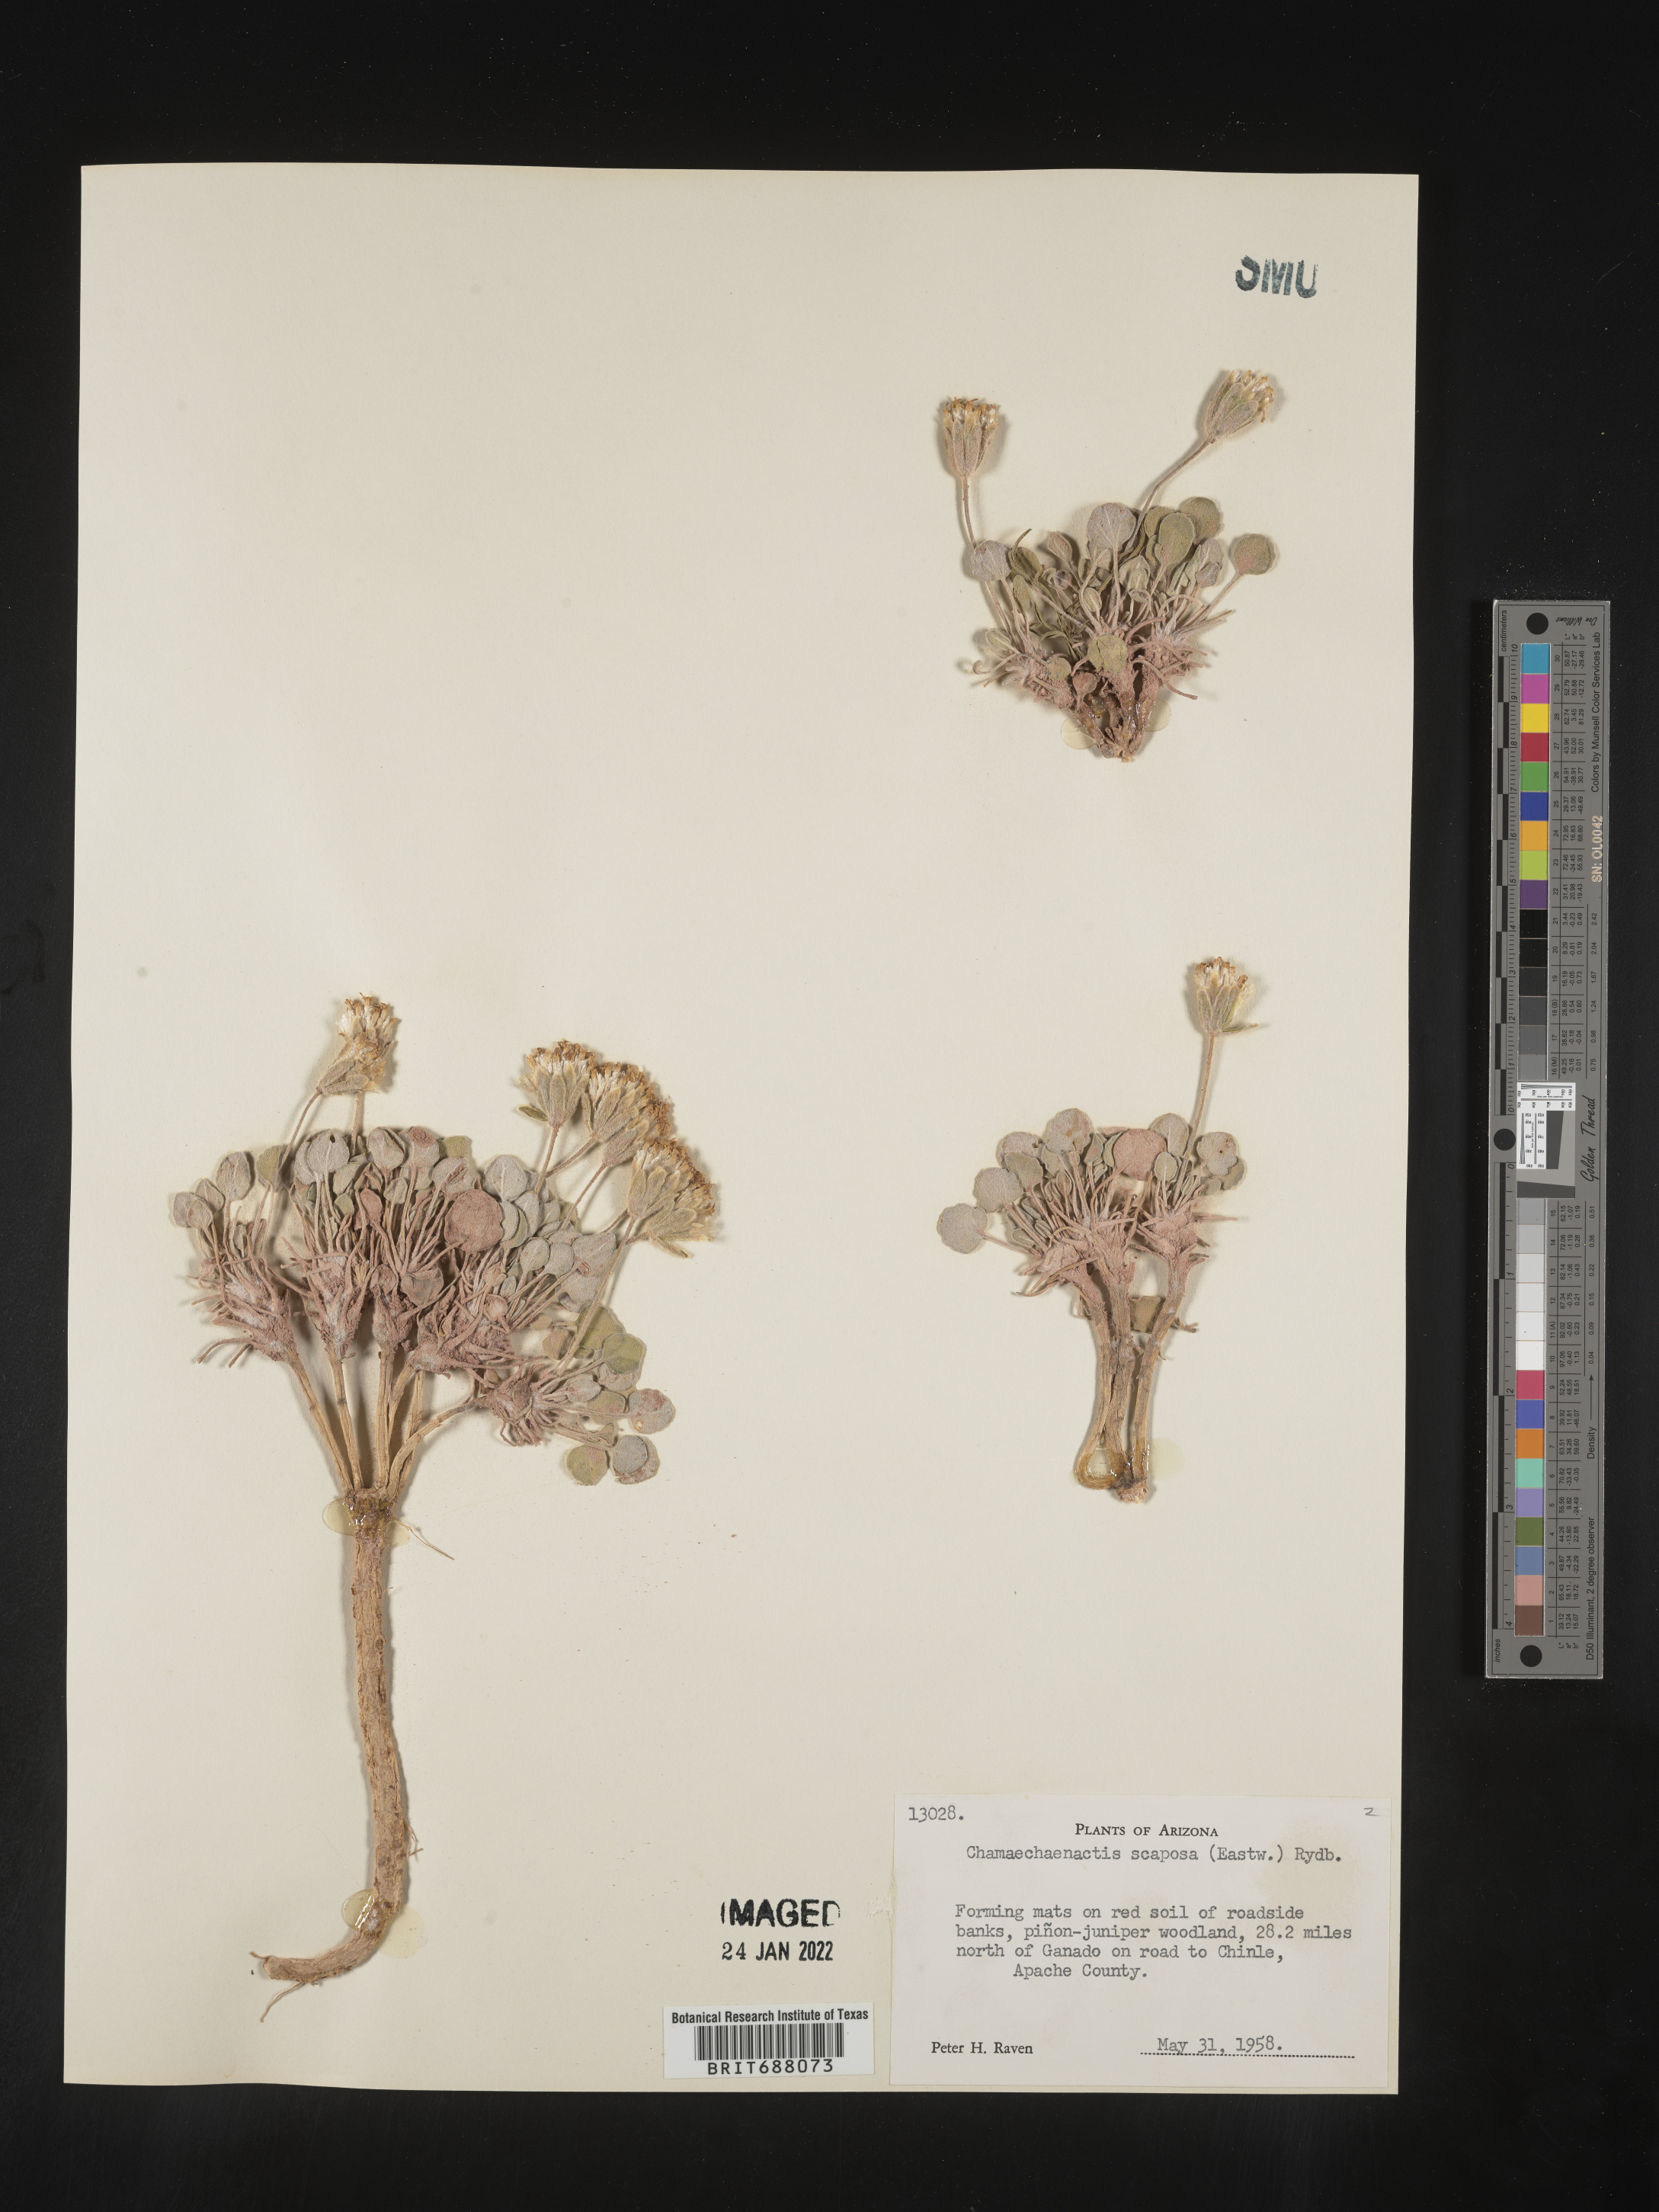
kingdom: Plantae
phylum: Tracheophyta
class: Magnoliopsida
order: Asterales
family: Asteraceae
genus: Chamaechaenactis
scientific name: Chamaechaenactis
